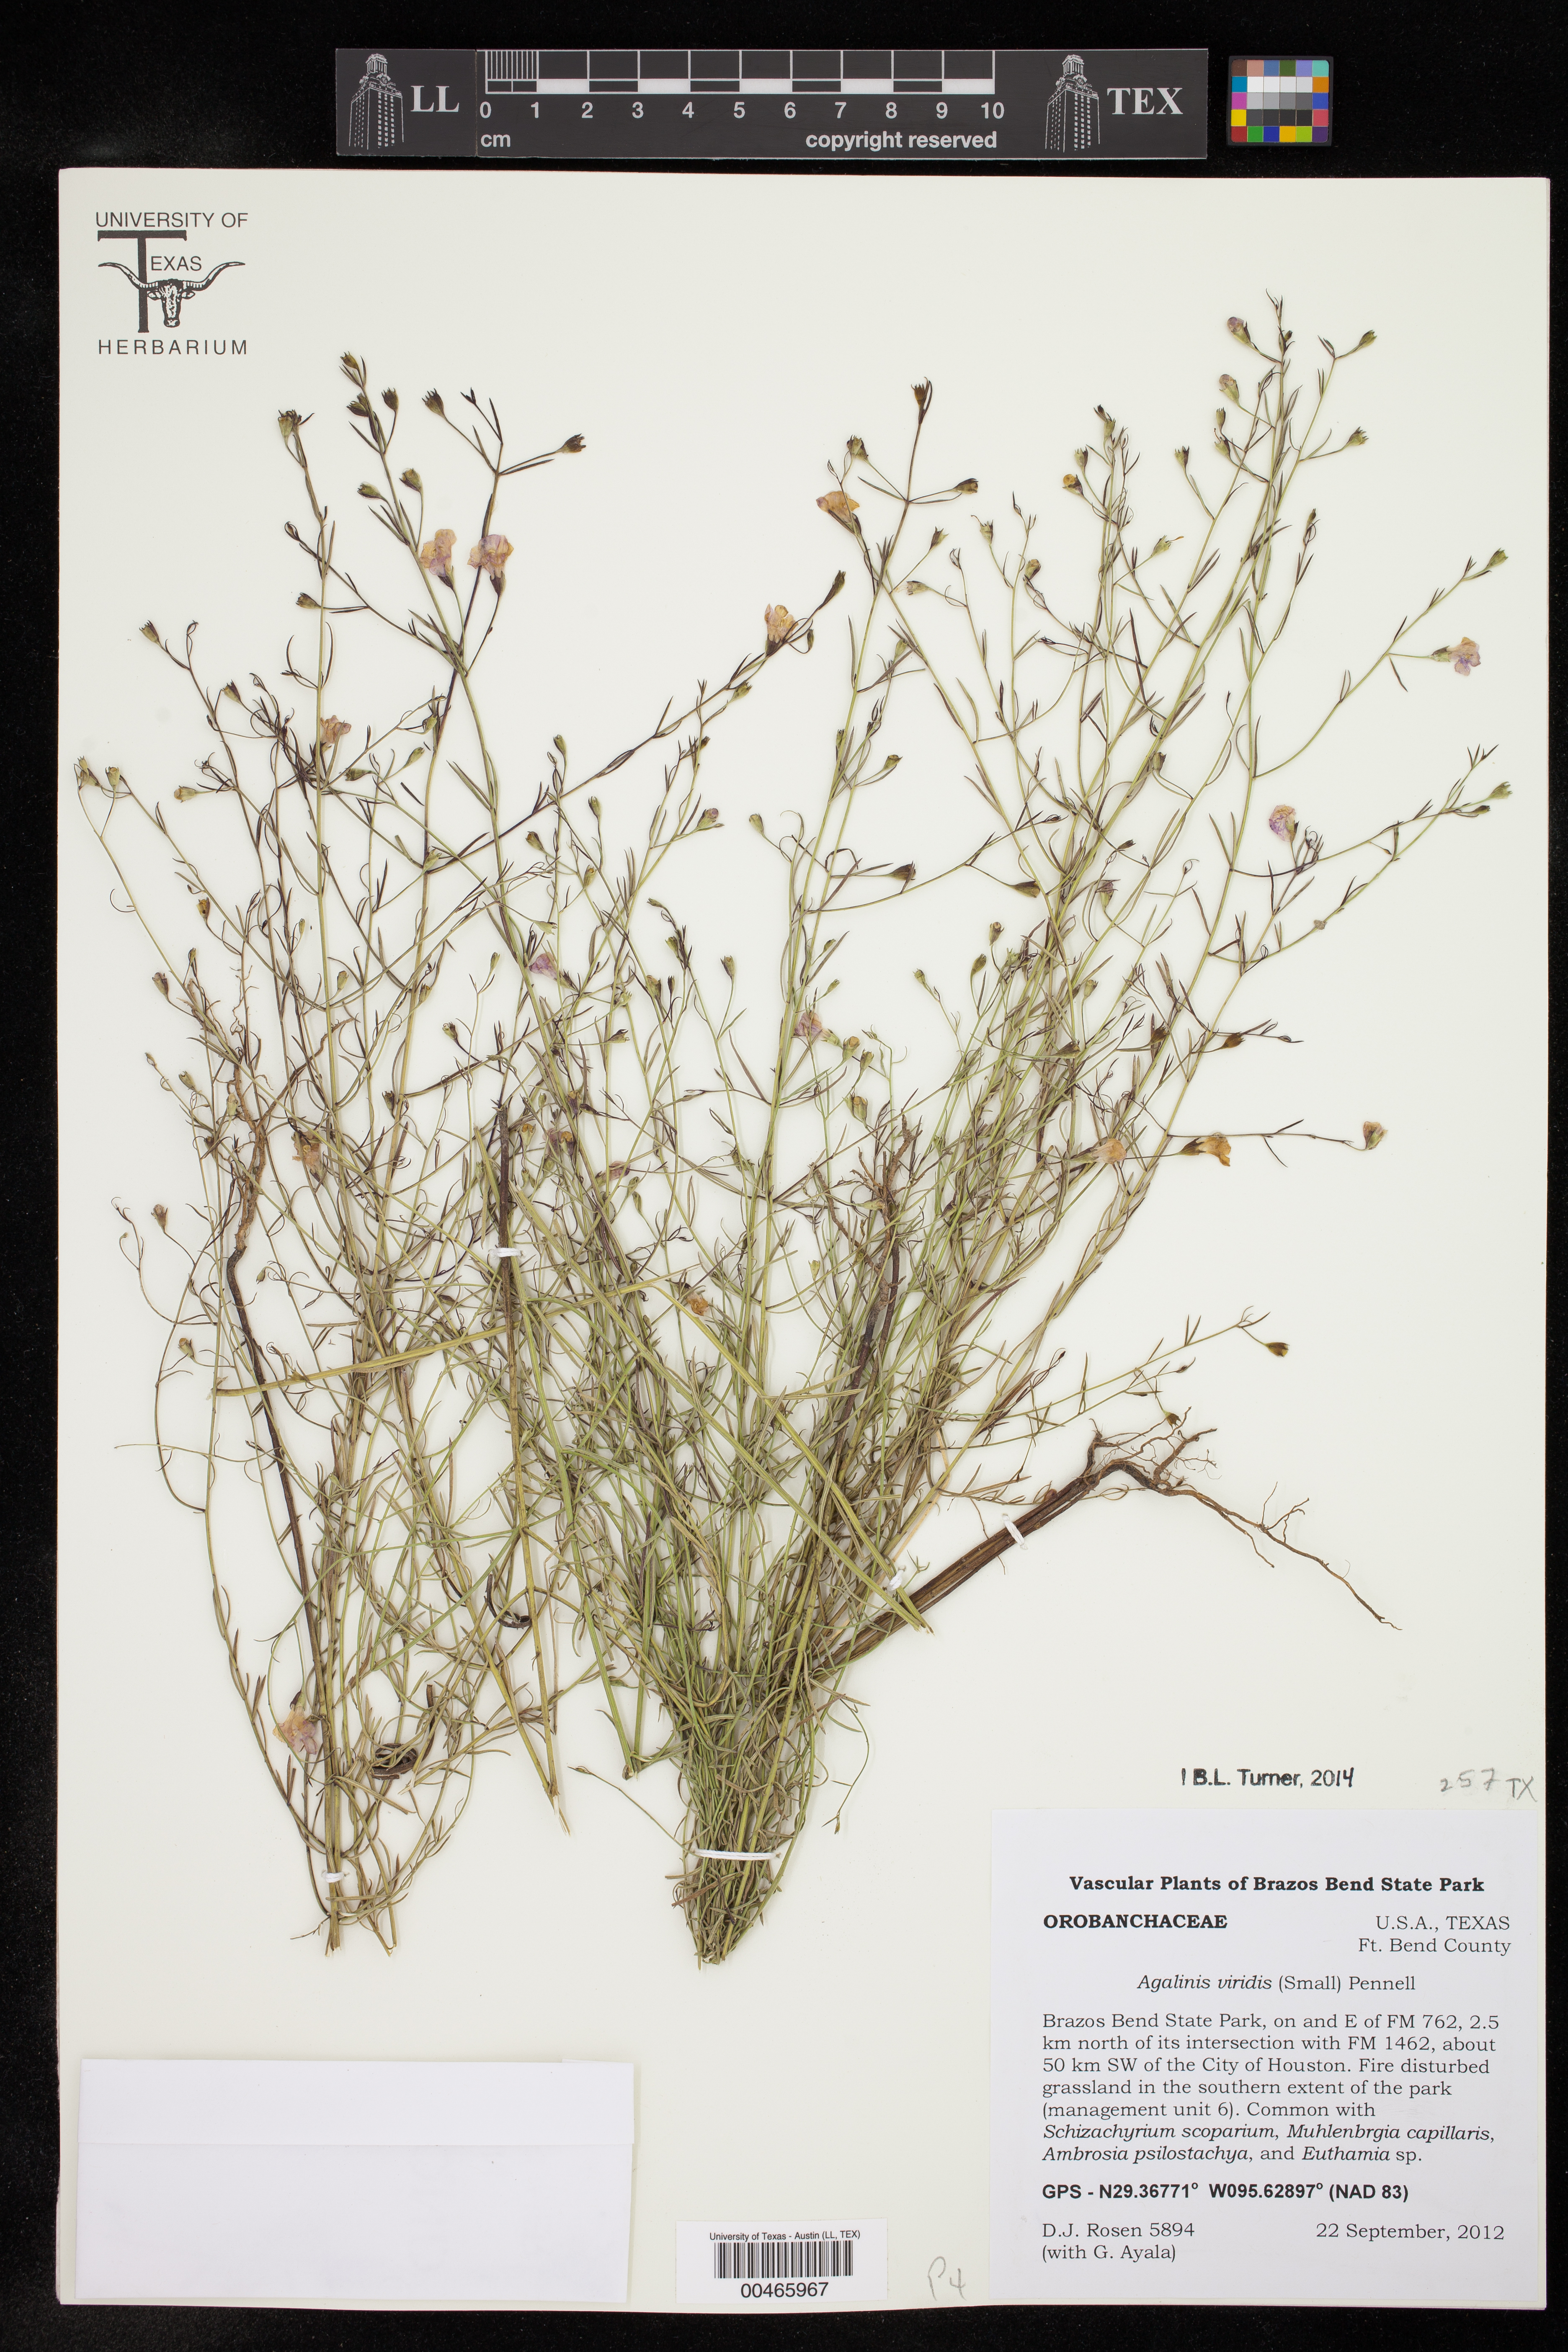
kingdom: Plantae
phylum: Tracheophyta
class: Magnoliopsida
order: Lamiales
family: Orobanchaceae
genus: Agalinis
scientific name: Agalinis viridis
